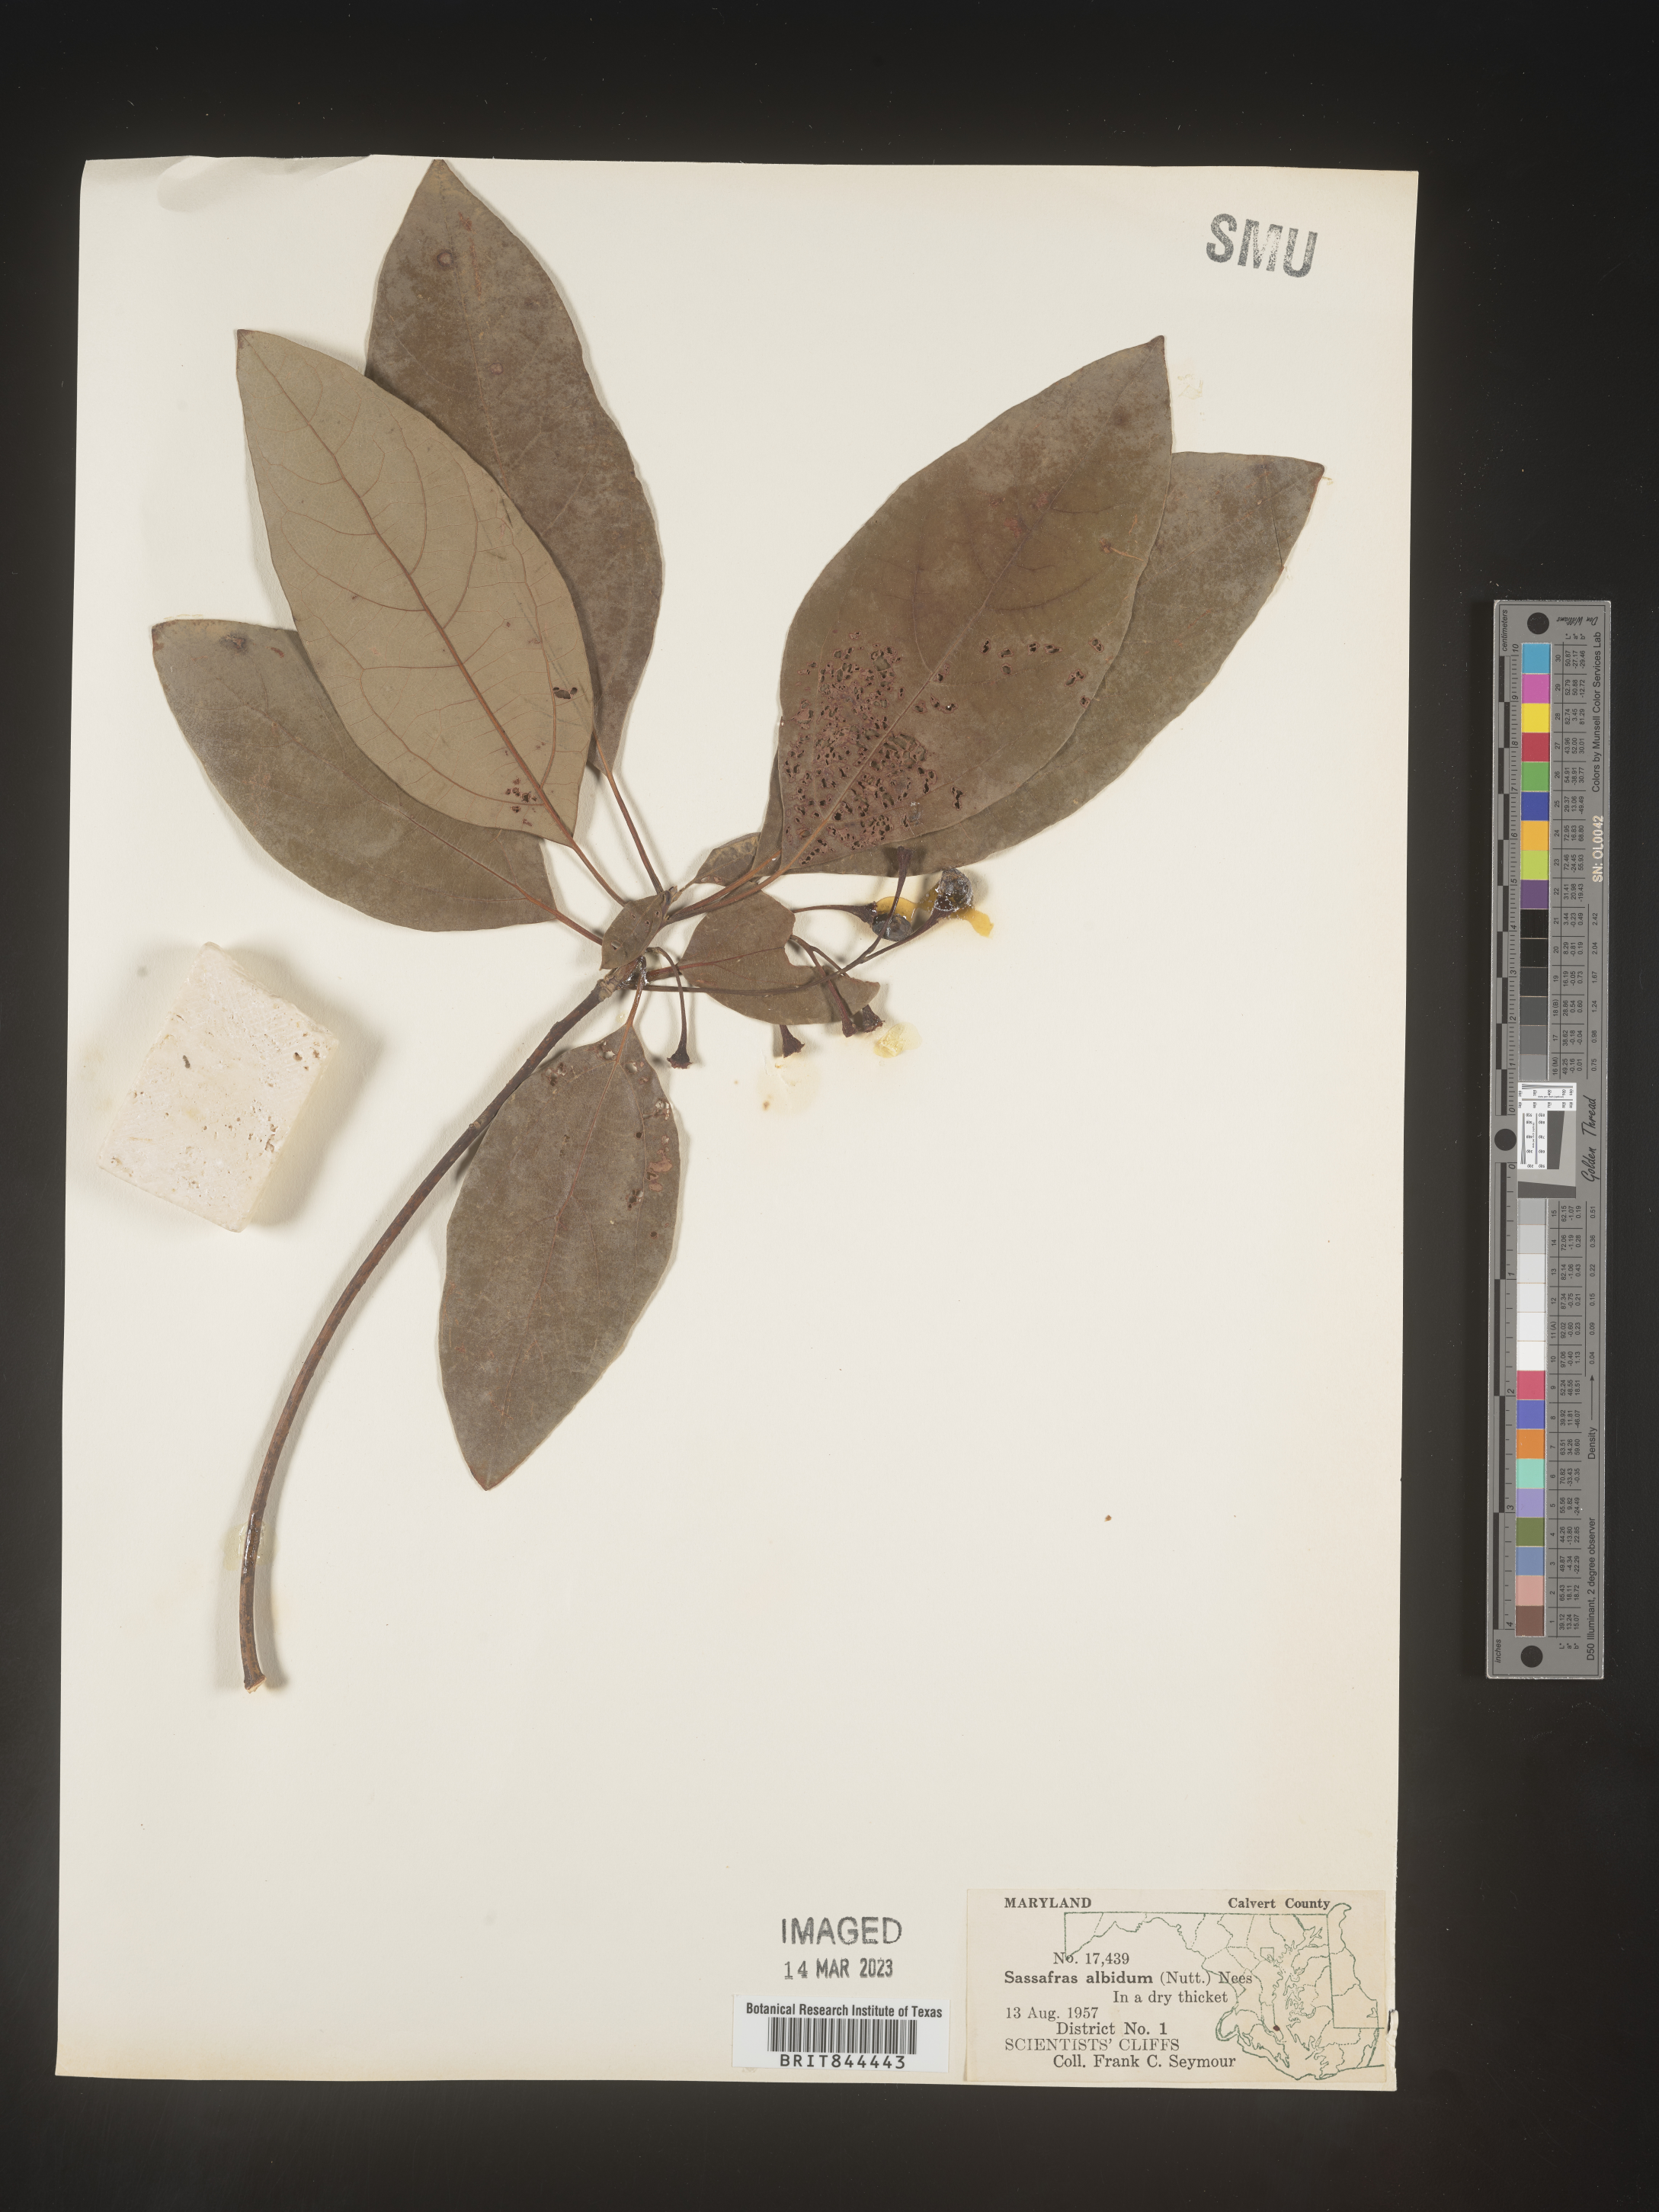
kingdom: Plantae
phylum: Tracheophyta
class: Magnoliopsida
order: Laurales
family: Lauraceae
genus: Sassafras
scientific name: Sassafras albidum
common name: Sassafras
